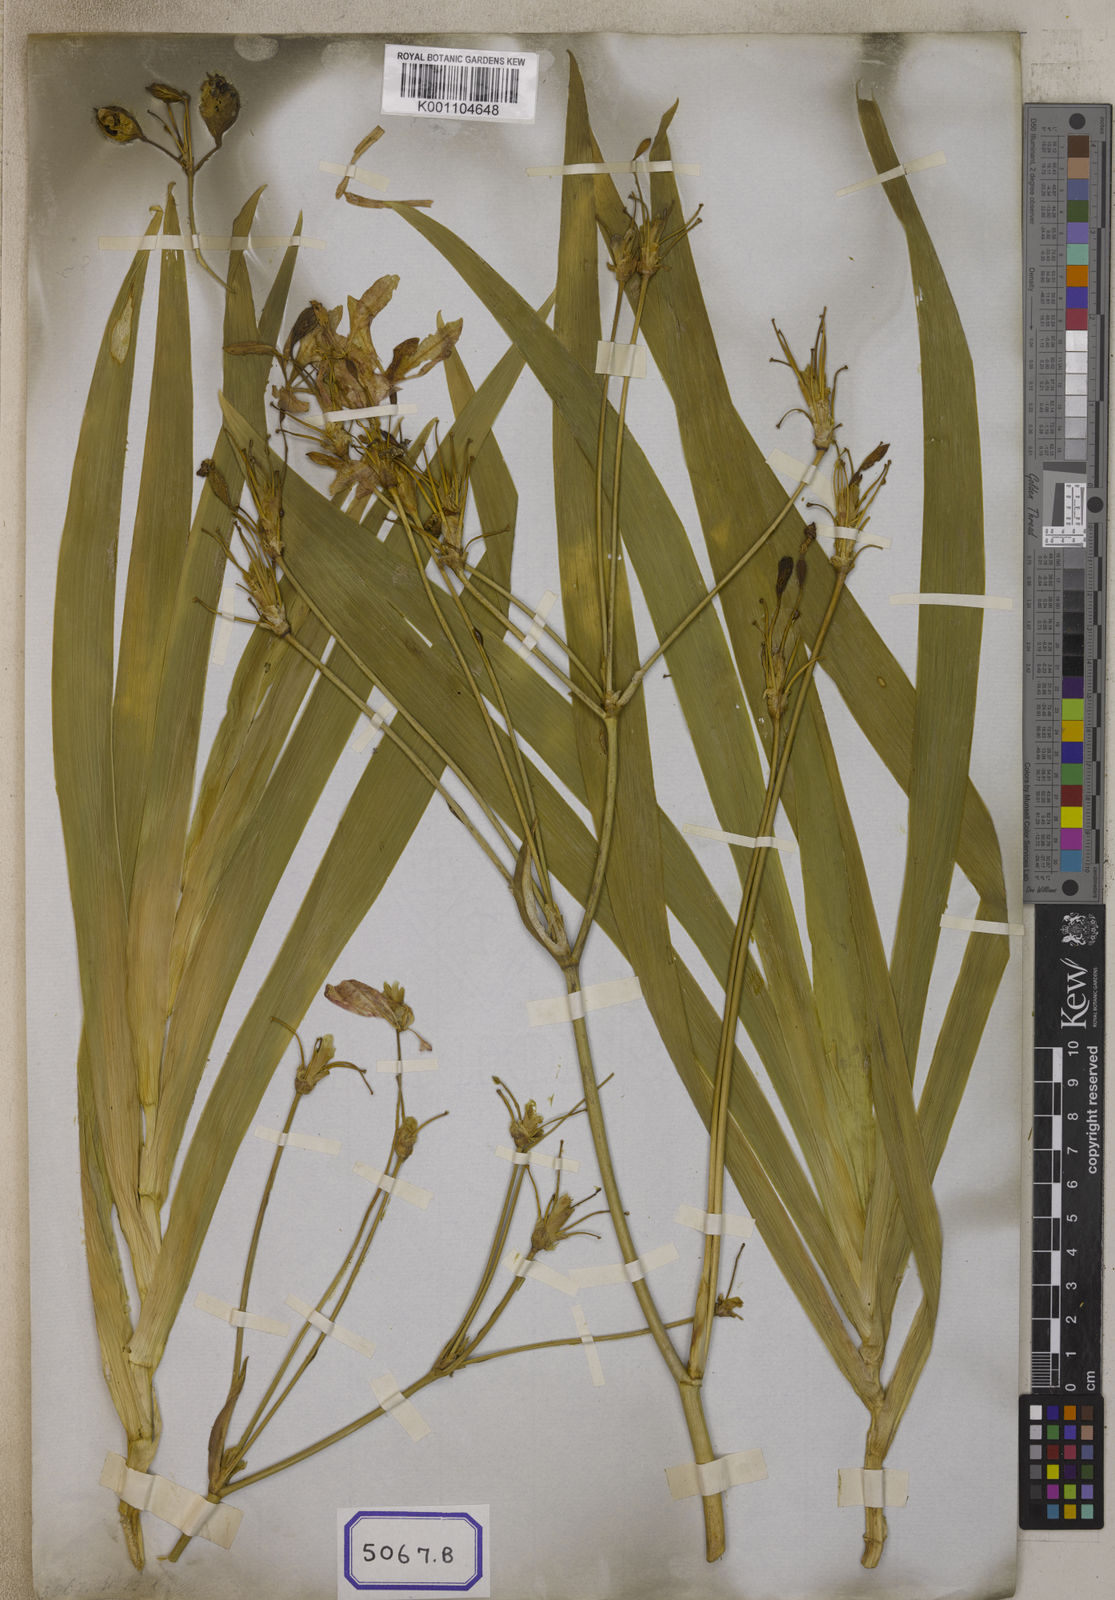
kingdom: Plantae
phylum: Tracheophyta
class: Liliopsida
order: Asparagales
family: Iridaceae
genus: Iris
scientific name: Iris domestica
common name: Belamcanda
